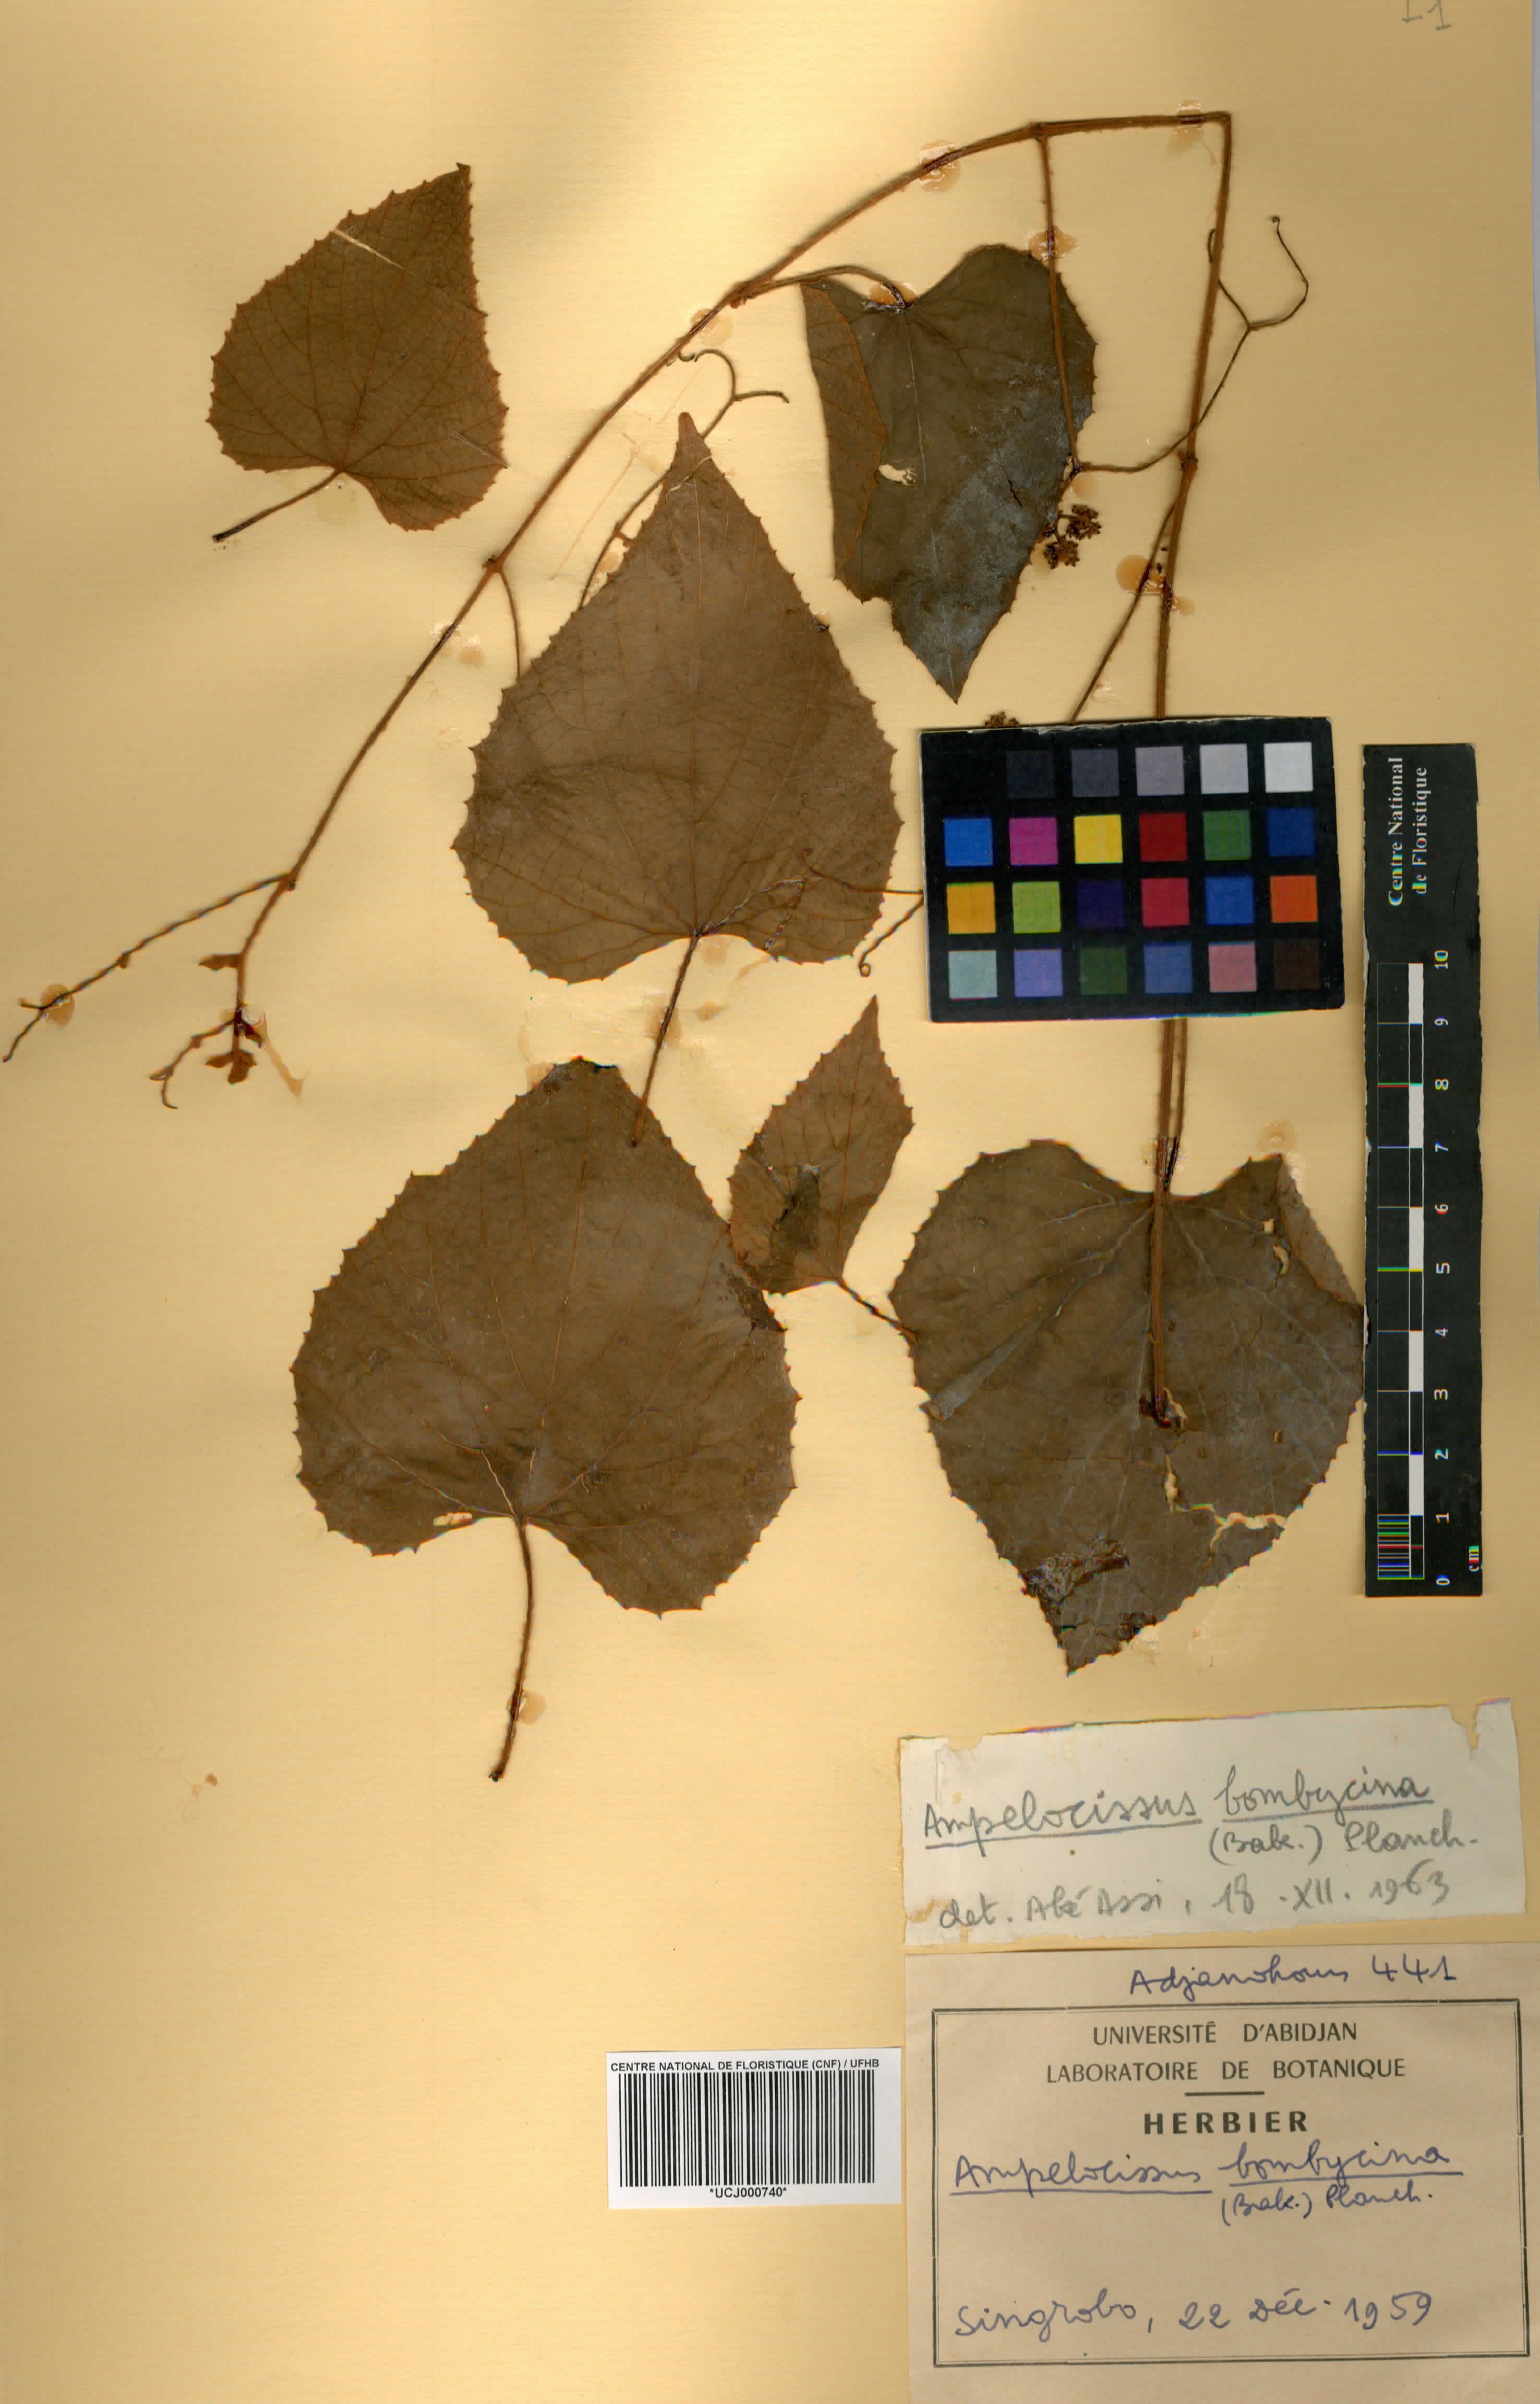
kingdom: Plantae
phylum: Tracheophyta
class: Magnoliopsida
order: Vitales
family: Vitaceae
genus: Ampelocissus
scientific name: Ampelocissus bombycina
